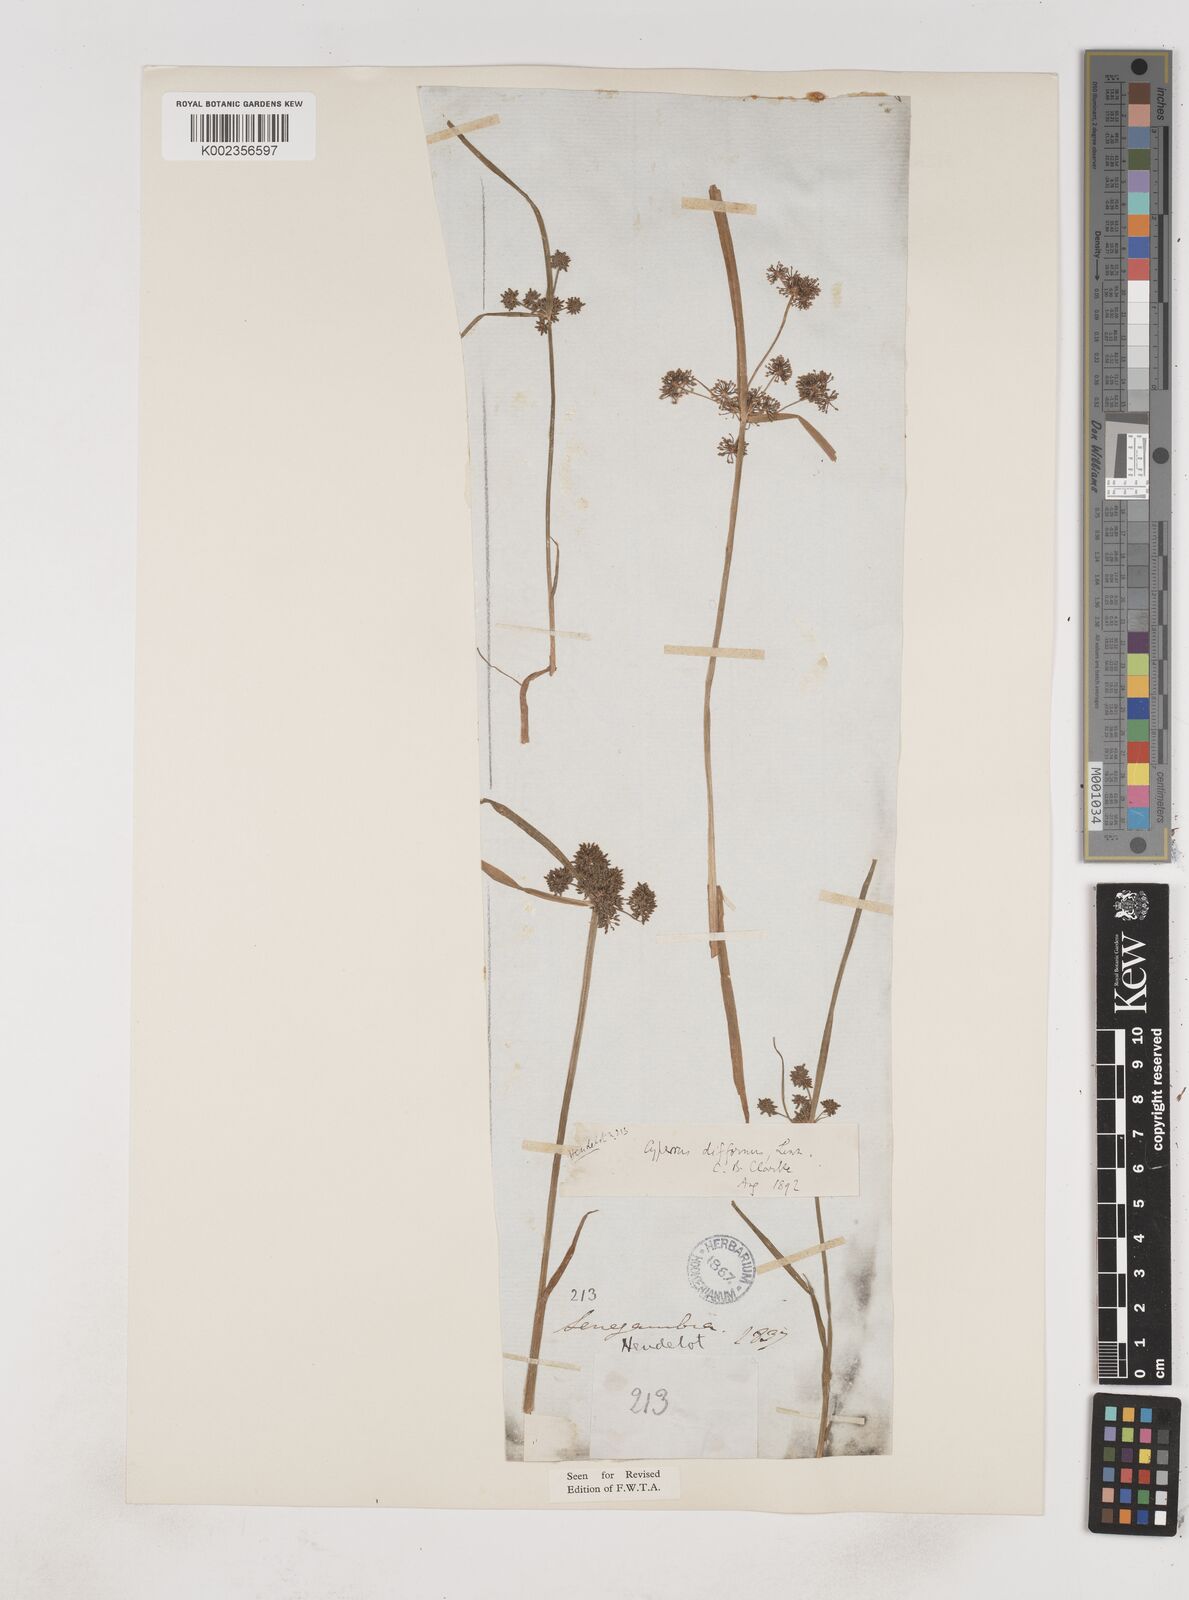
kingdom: Plantae
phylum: Tracheophyta
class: Liliopsida
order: Poales
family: Cyperaceae
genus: Cyperus
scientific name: Cyperus difformis
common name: Variable flatsedge
